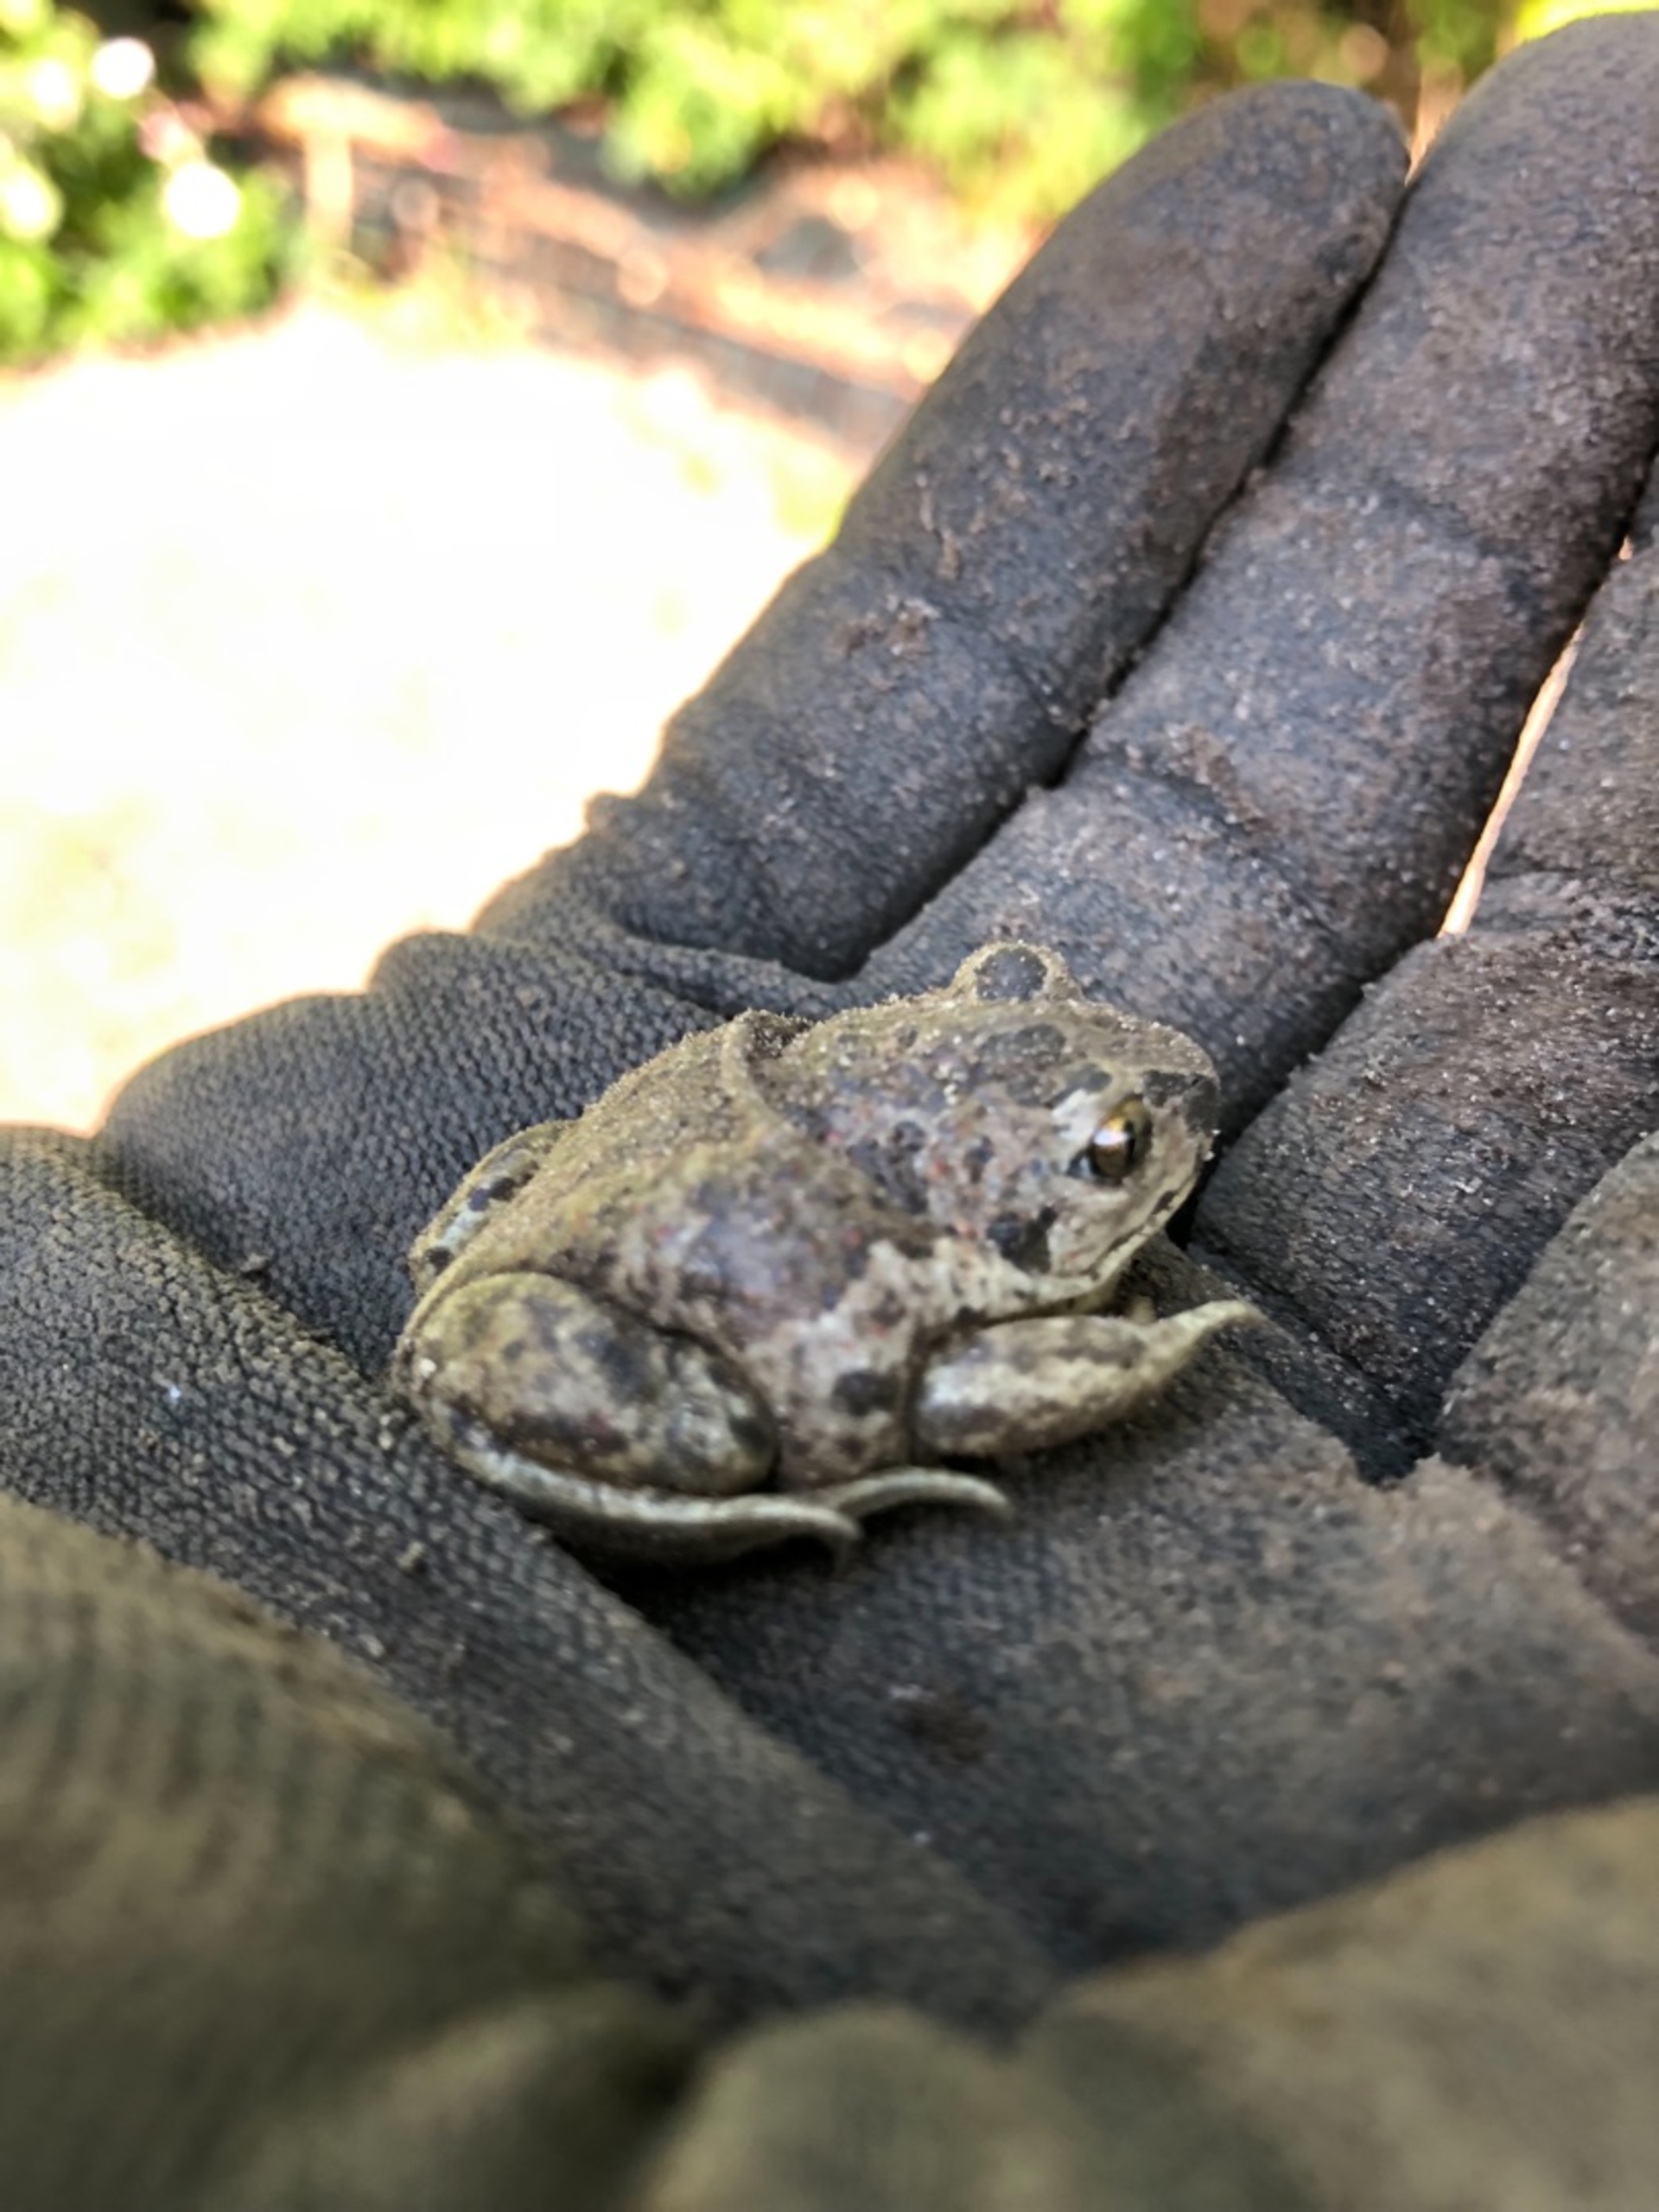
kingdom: Animalia
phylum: Chordata
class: Amphibia
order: Anura
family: Pelobatidae
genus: Pelobates
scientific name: Pelobates fuscus
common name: Løgfrø
